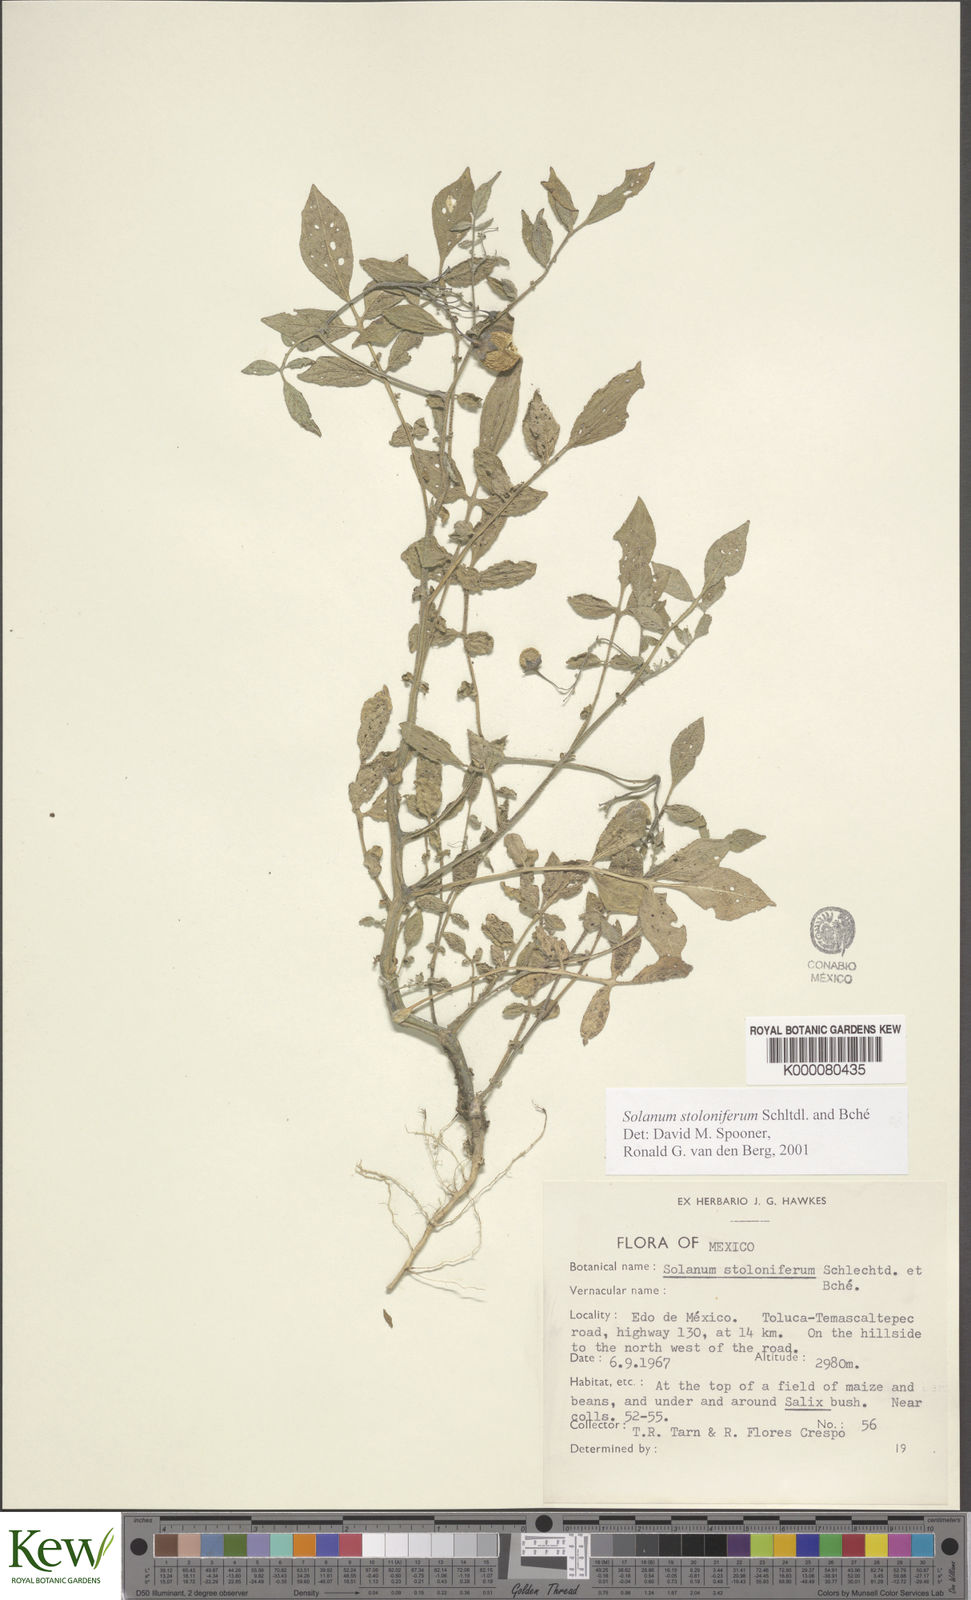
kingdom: Plantae
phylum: Tracheophyta
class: Magnoliopsida
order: Solanales
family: Solanaceae
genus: Solanum
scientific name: Solanum stoloniferum
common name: Fendler's nighshade
